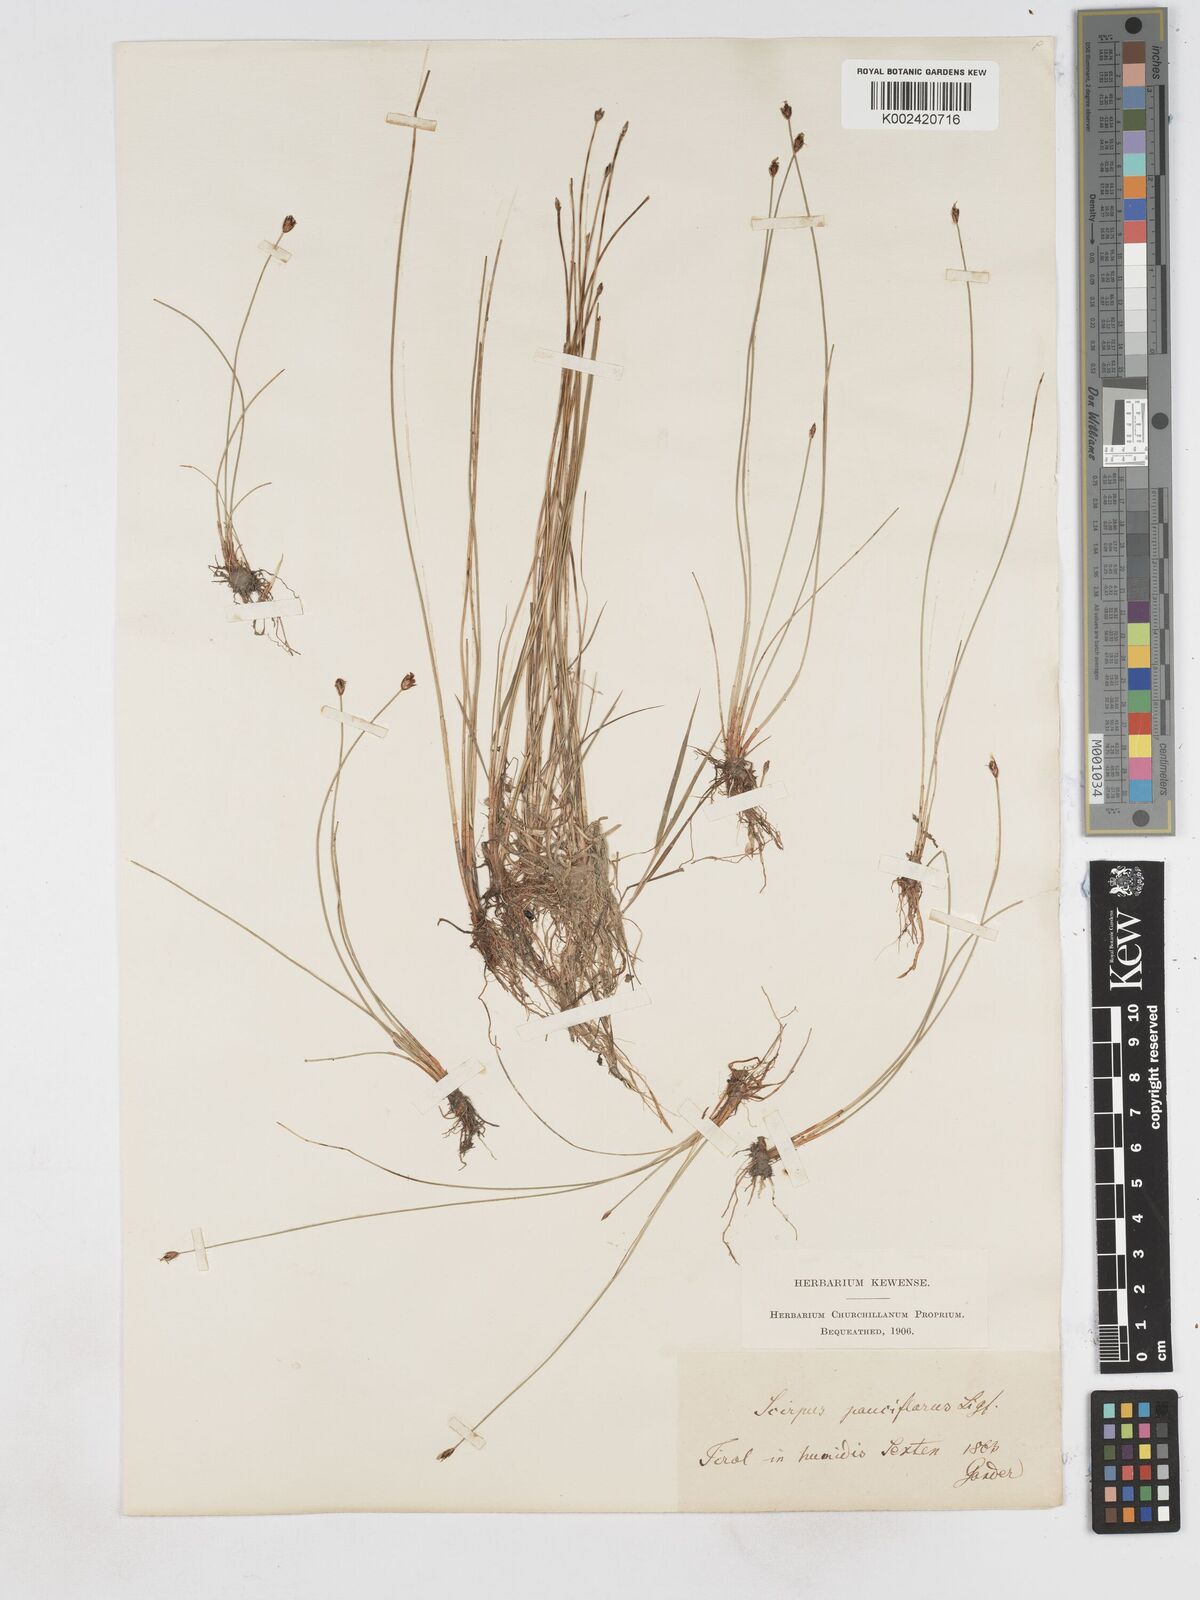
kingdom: Plantae
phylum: Tracheophyta
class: Liliopsida
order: Poales
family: Cyperaceae
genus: Eleocharis
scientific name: Eleocharis quinqueflora
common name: Few-flowered spike-rush
